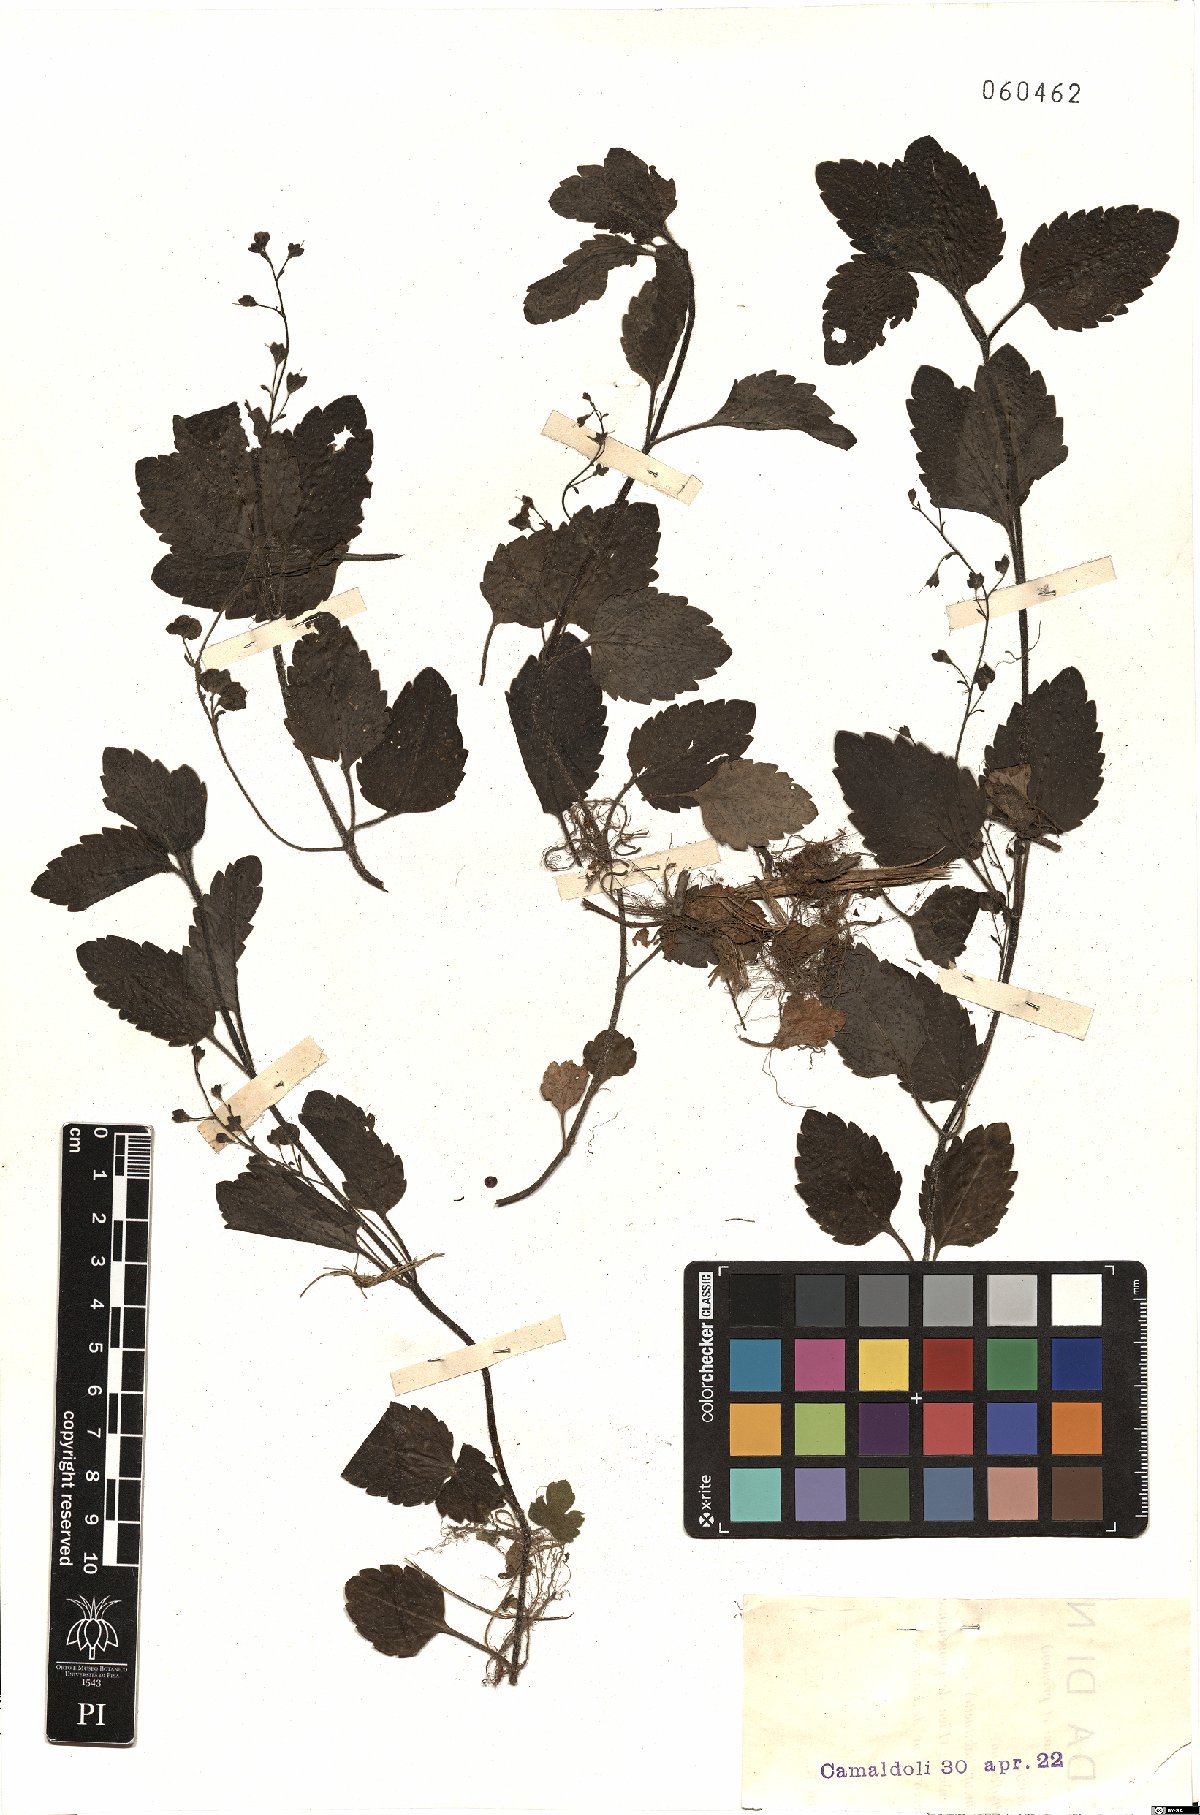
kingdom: Plantae
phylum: Tracheophyta
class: Magnoliopsida
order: Lamiales
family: Plantaginaceae
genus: Veronica
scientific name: Veronica montana
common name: Wood speedwell
